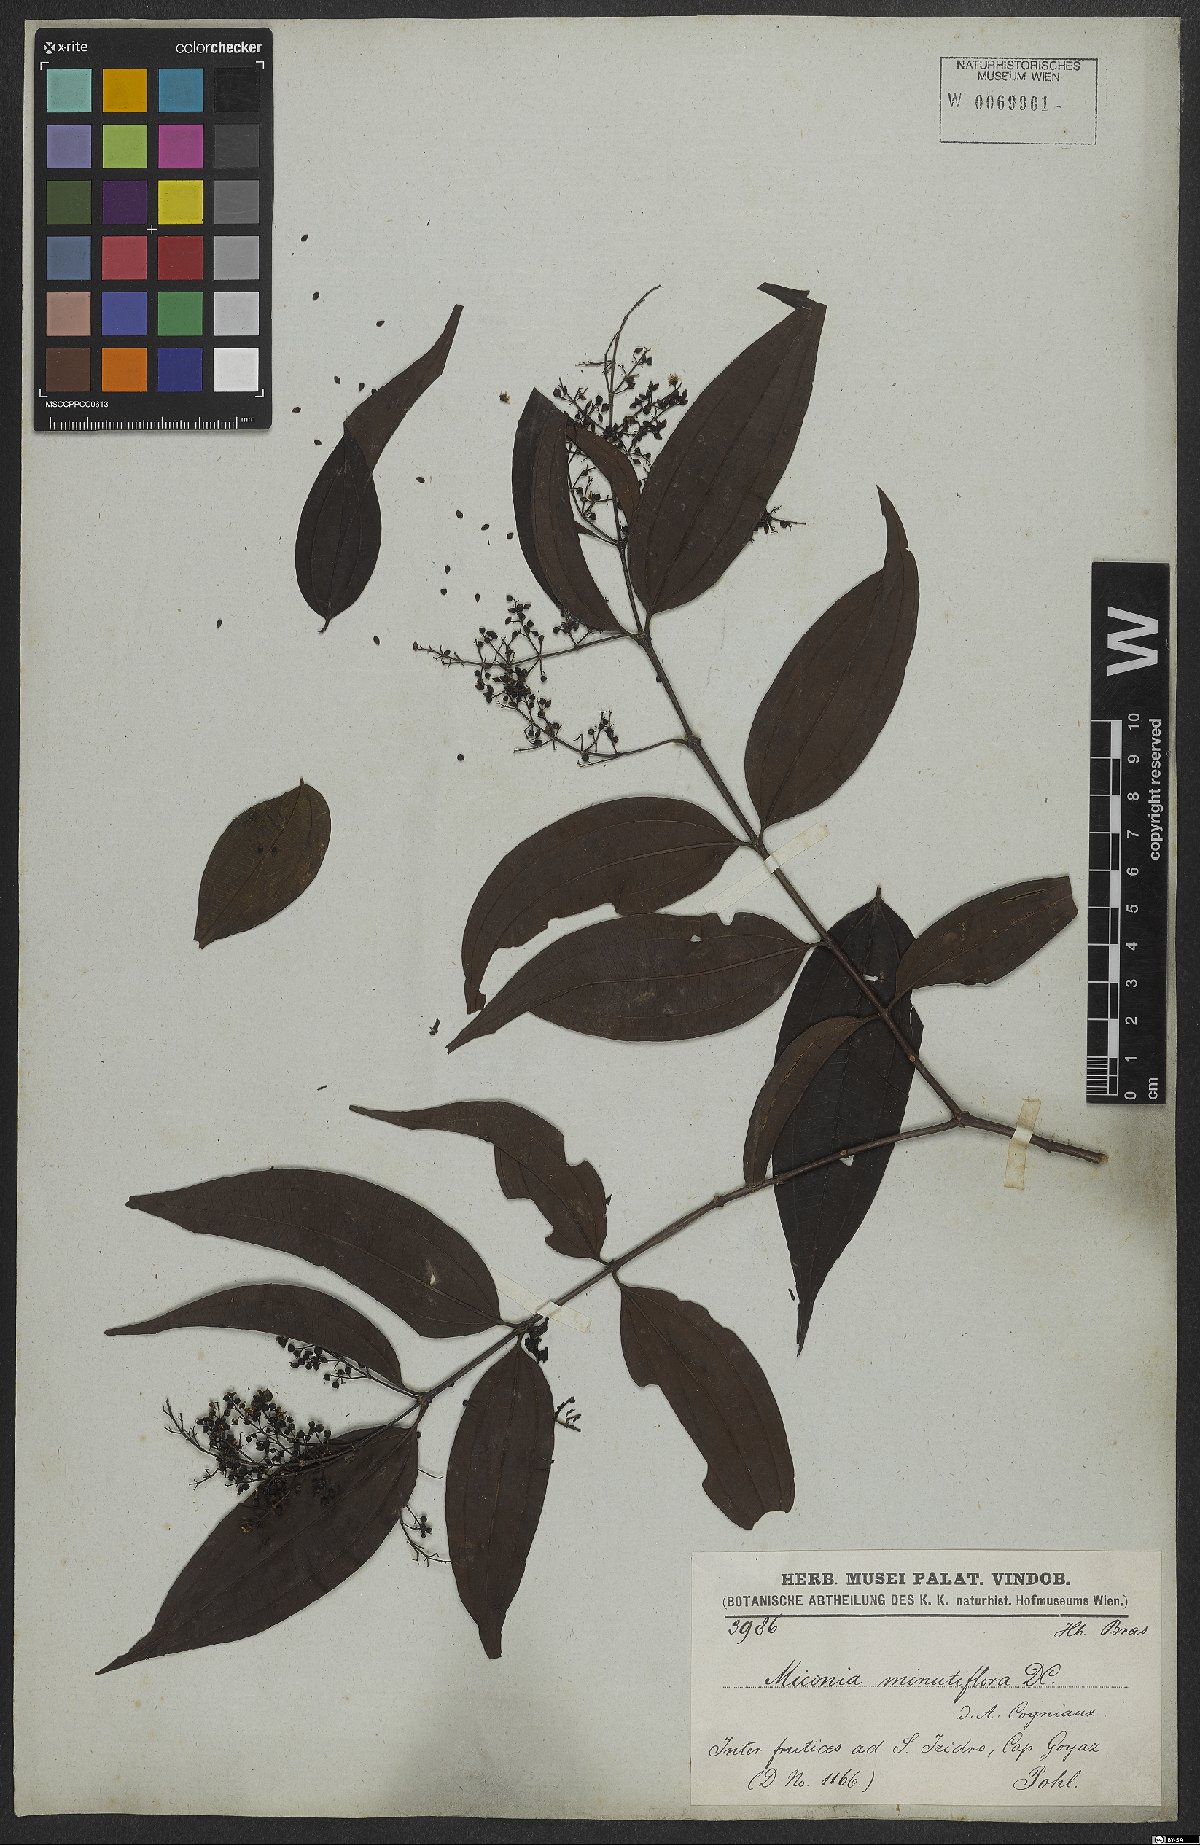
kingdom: Plantae
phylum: Tracheophyta
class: Magnoliopsida
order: Myrtales
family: Melastomataceae
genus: Miconia
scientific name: Miconia minutiflora
